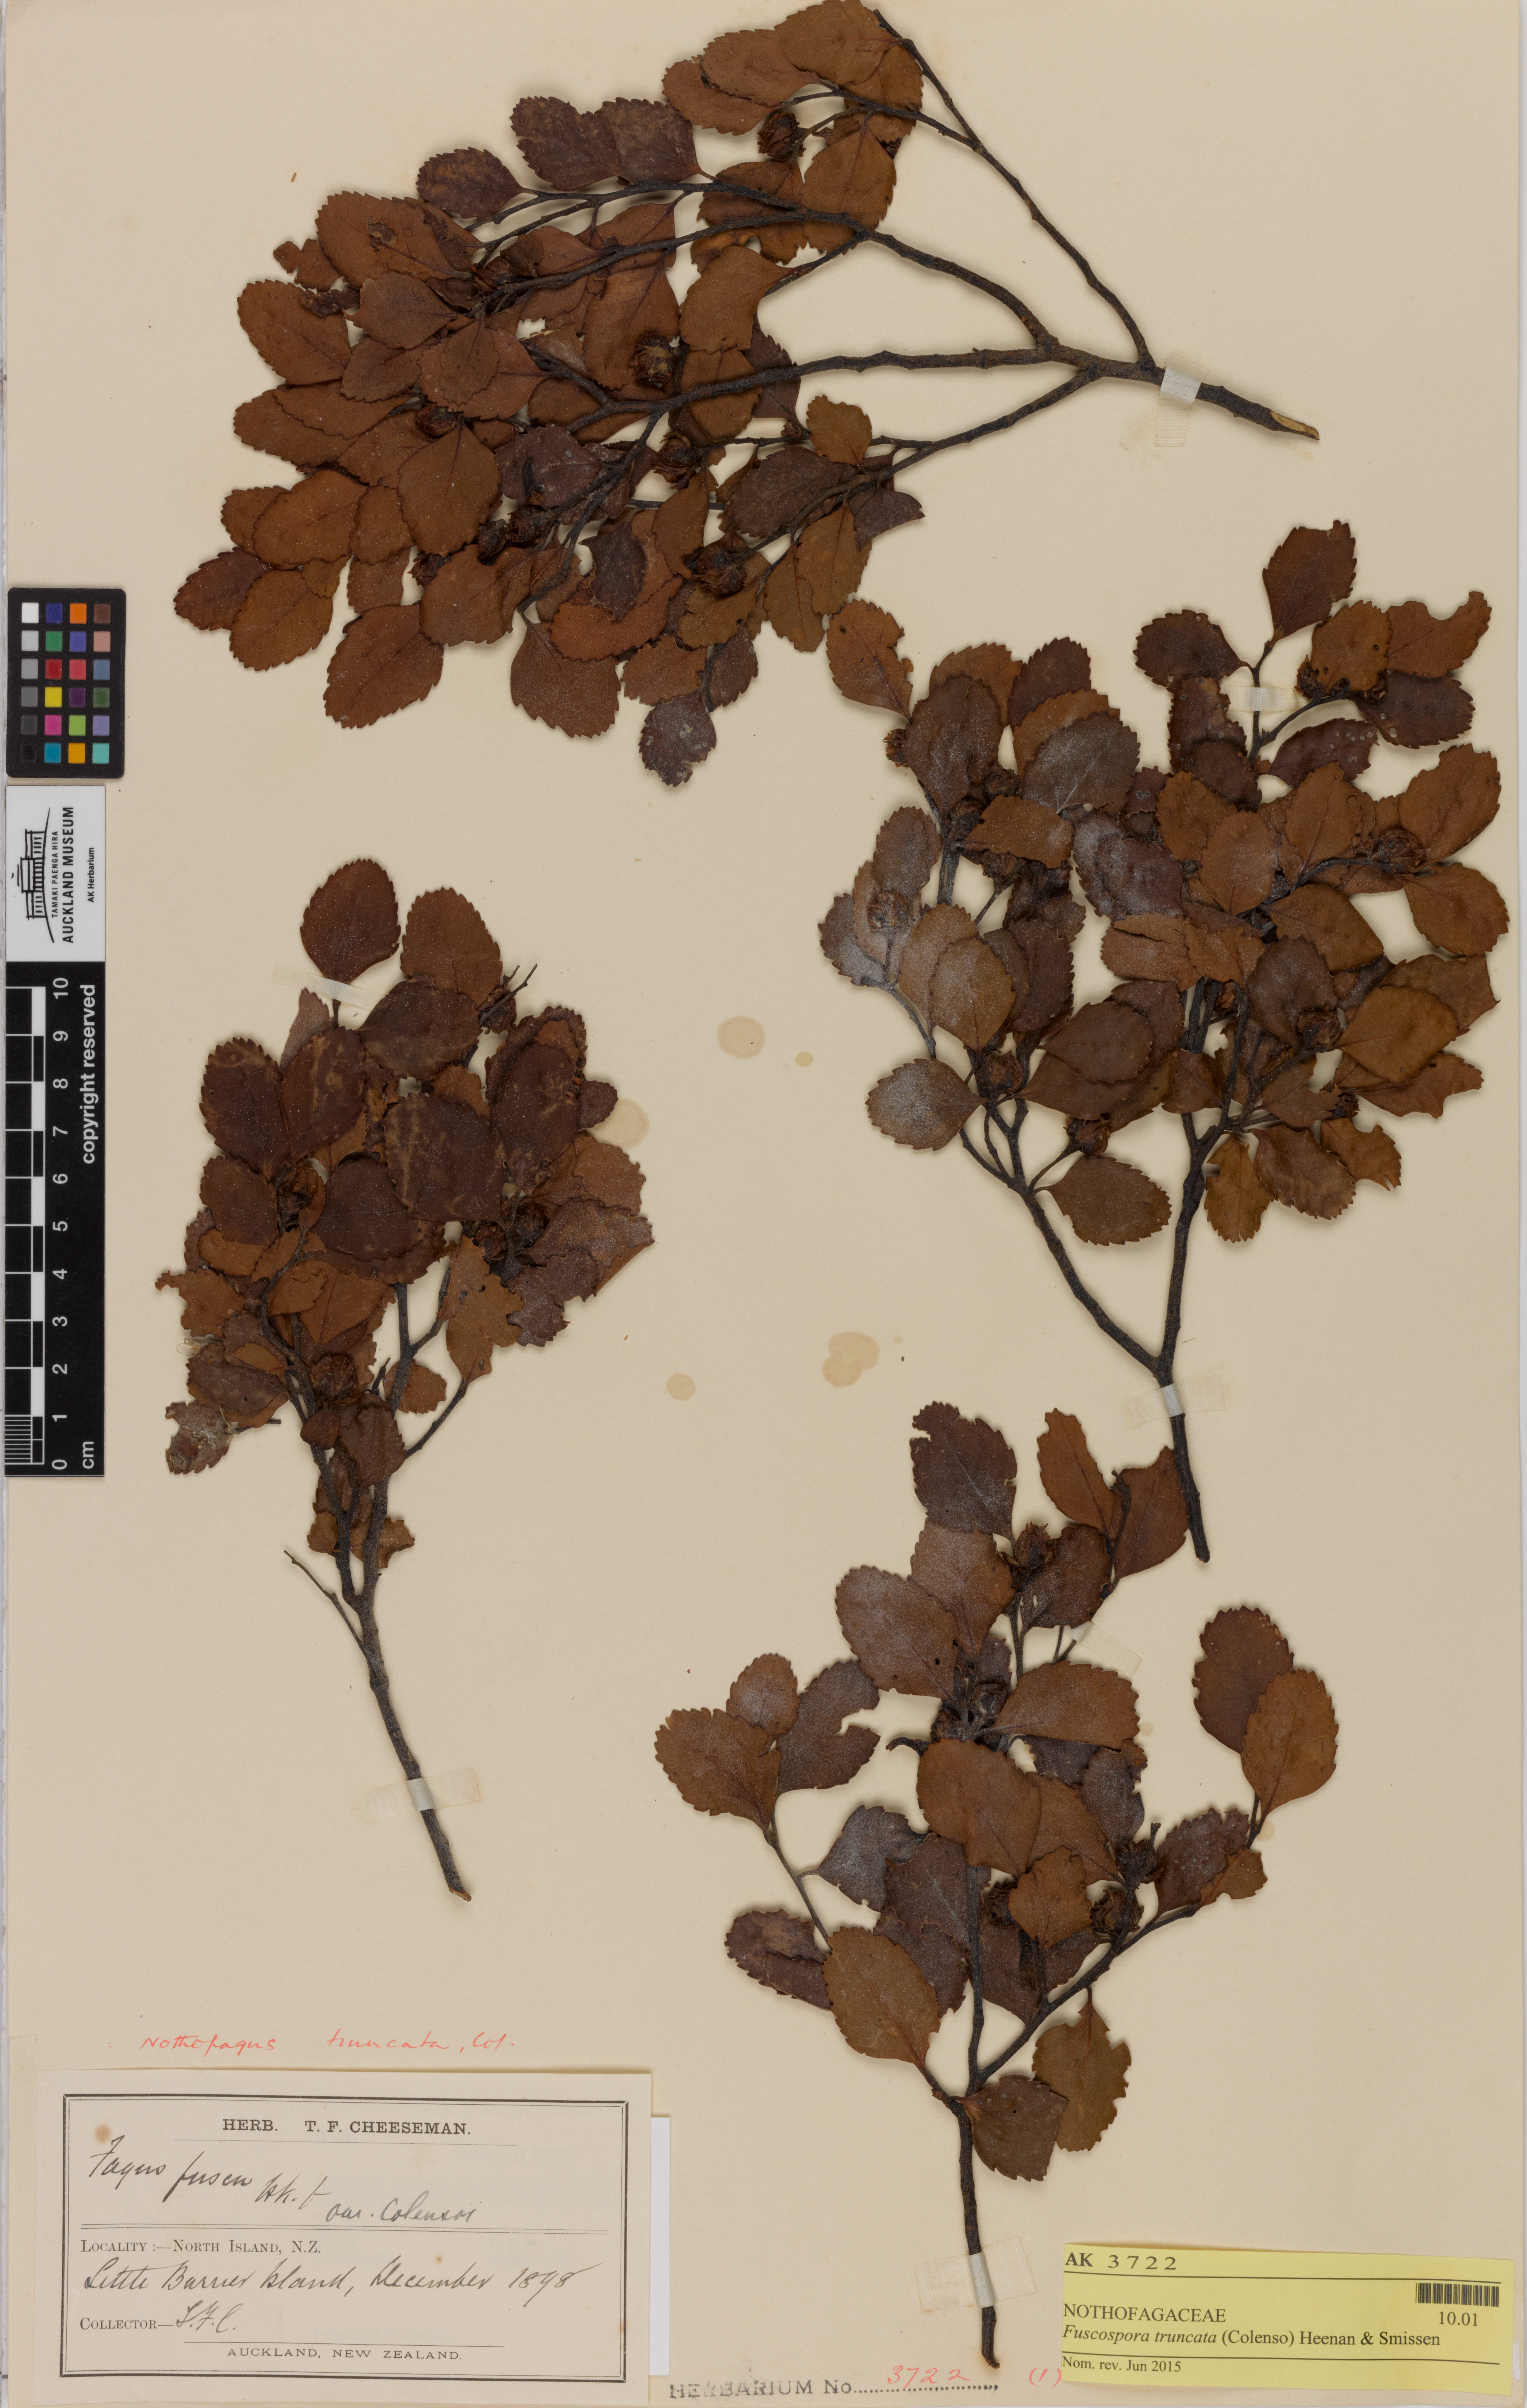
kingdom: Plantae
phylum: Tracheophyta
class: Magnoliopsida
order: Fagales
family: Nothofagaceae
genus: Nothofagus
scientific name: Nothofagus truncata
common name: Hard beech
